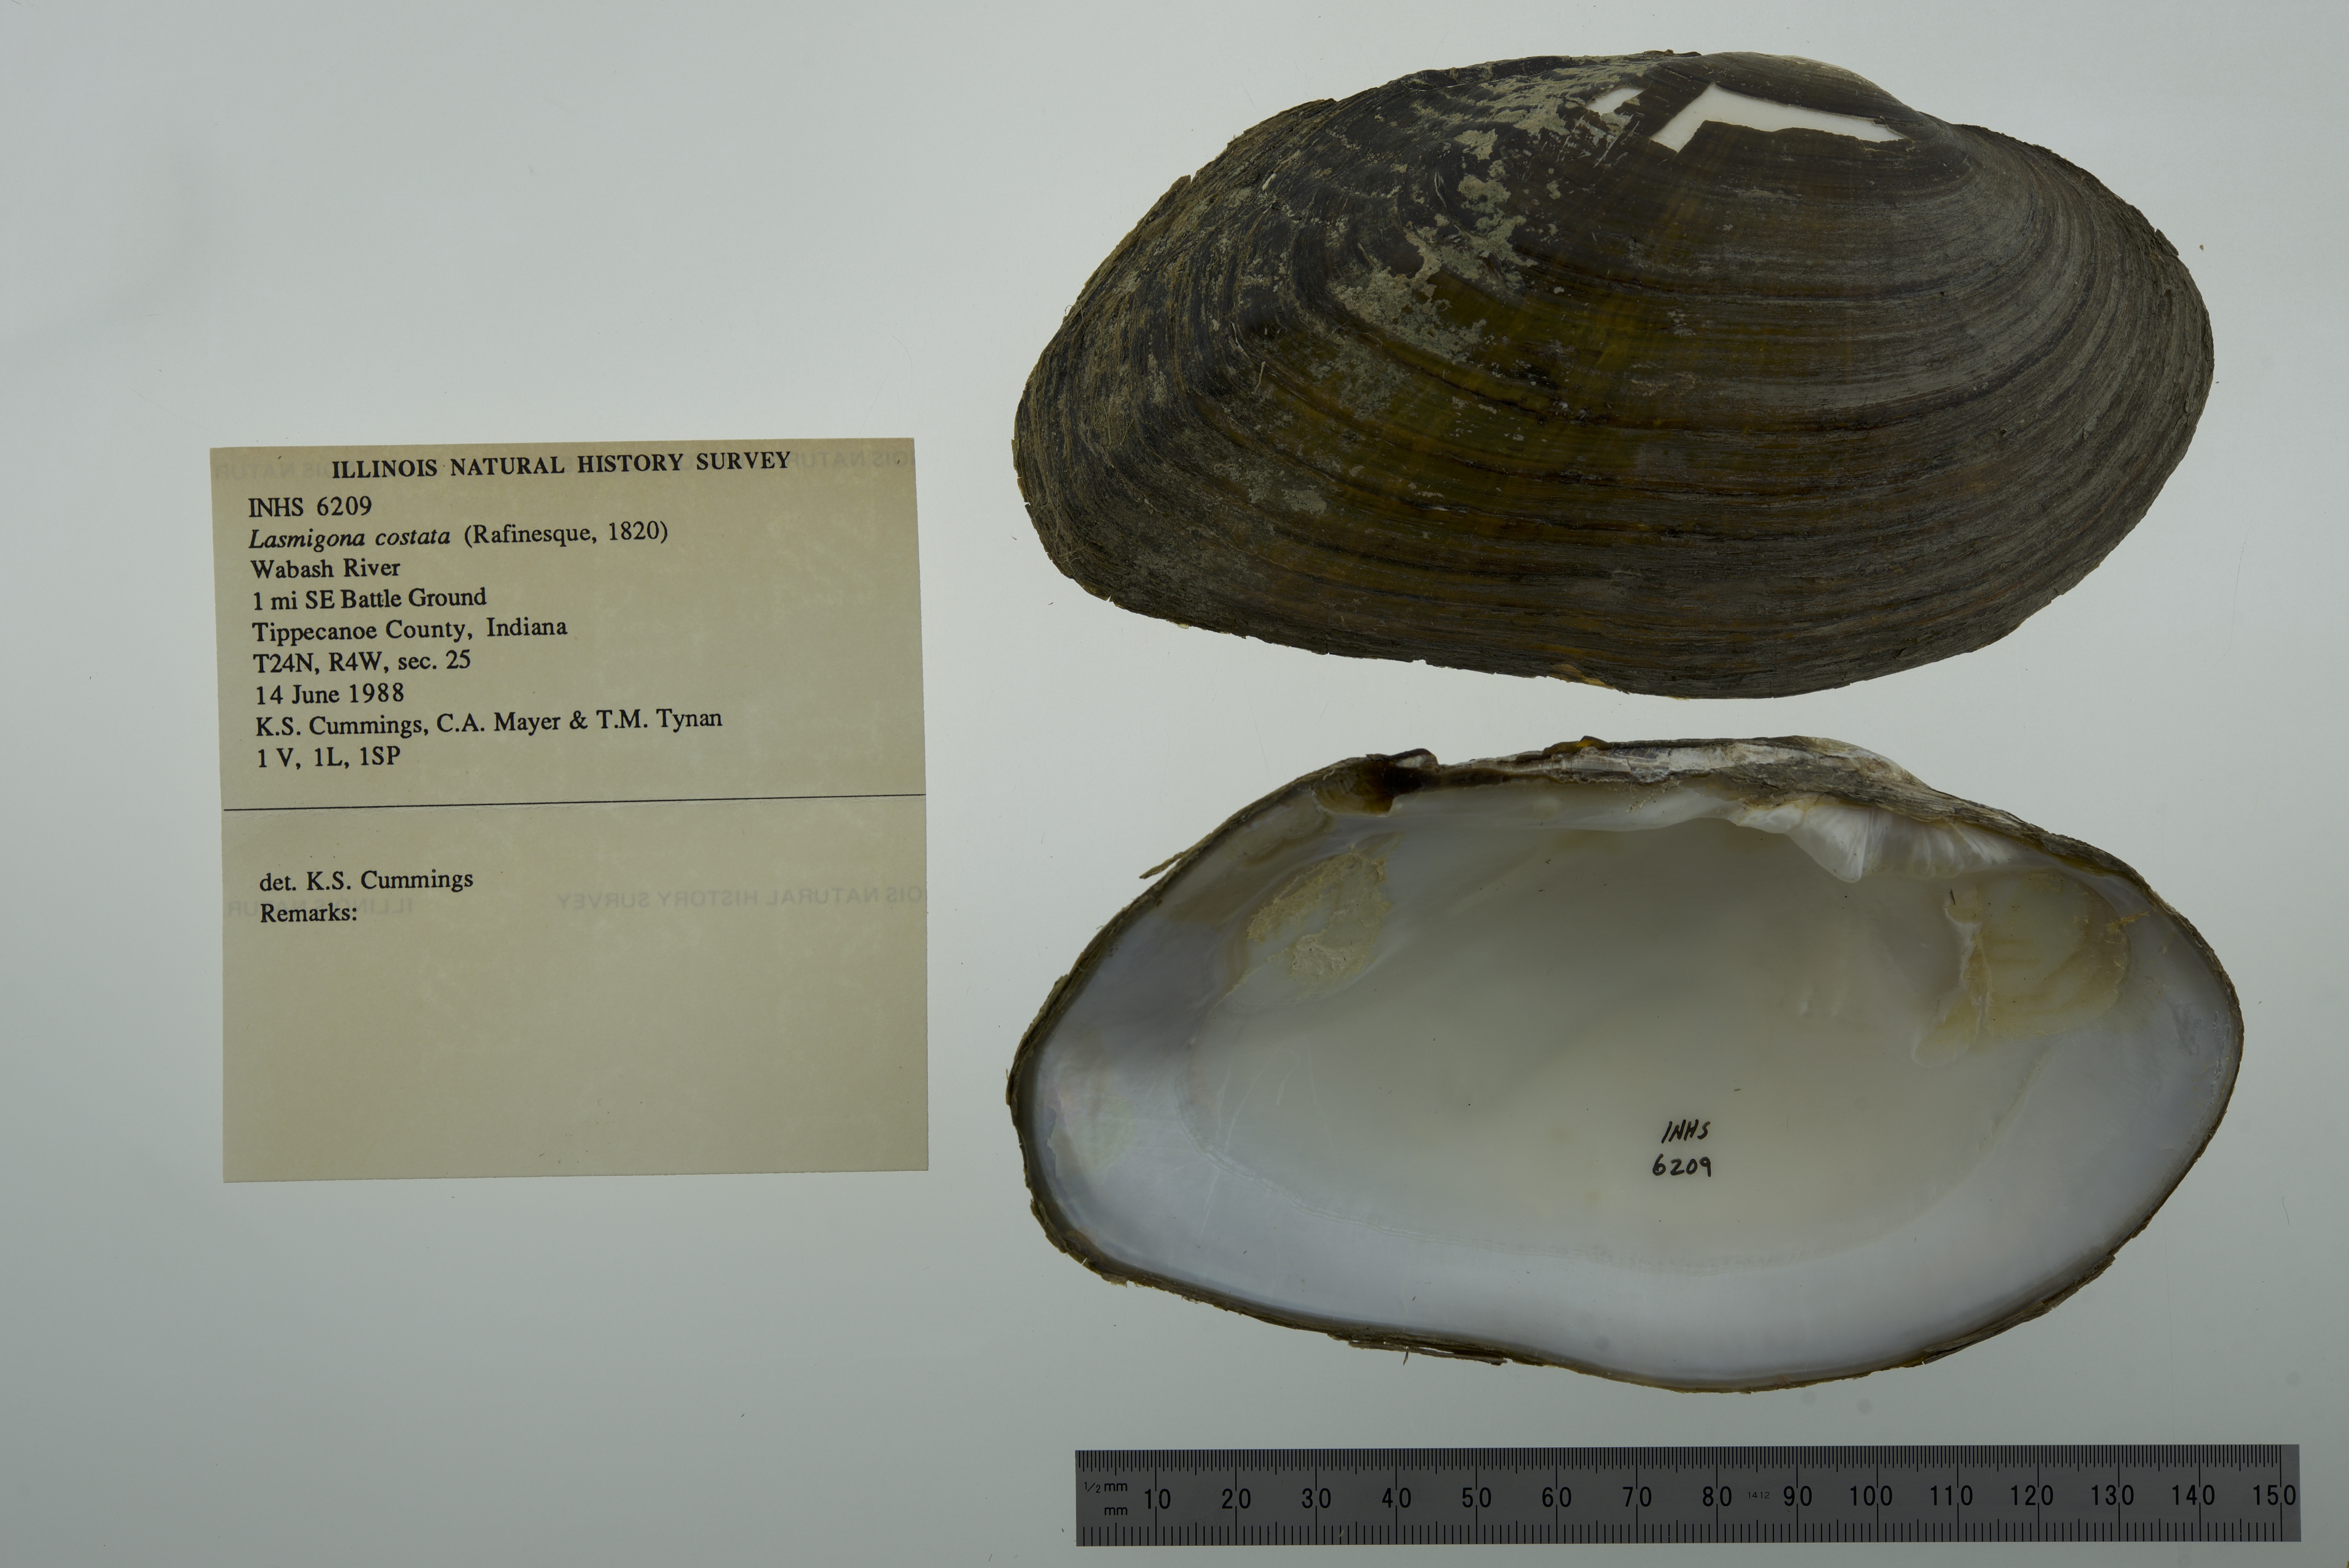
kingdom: Animalia
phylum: Mollusca
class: Bivalvia
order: Unionida
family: Unionidae
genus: Lasmigona
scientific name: Lasmigona costata
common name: Flutedshell
